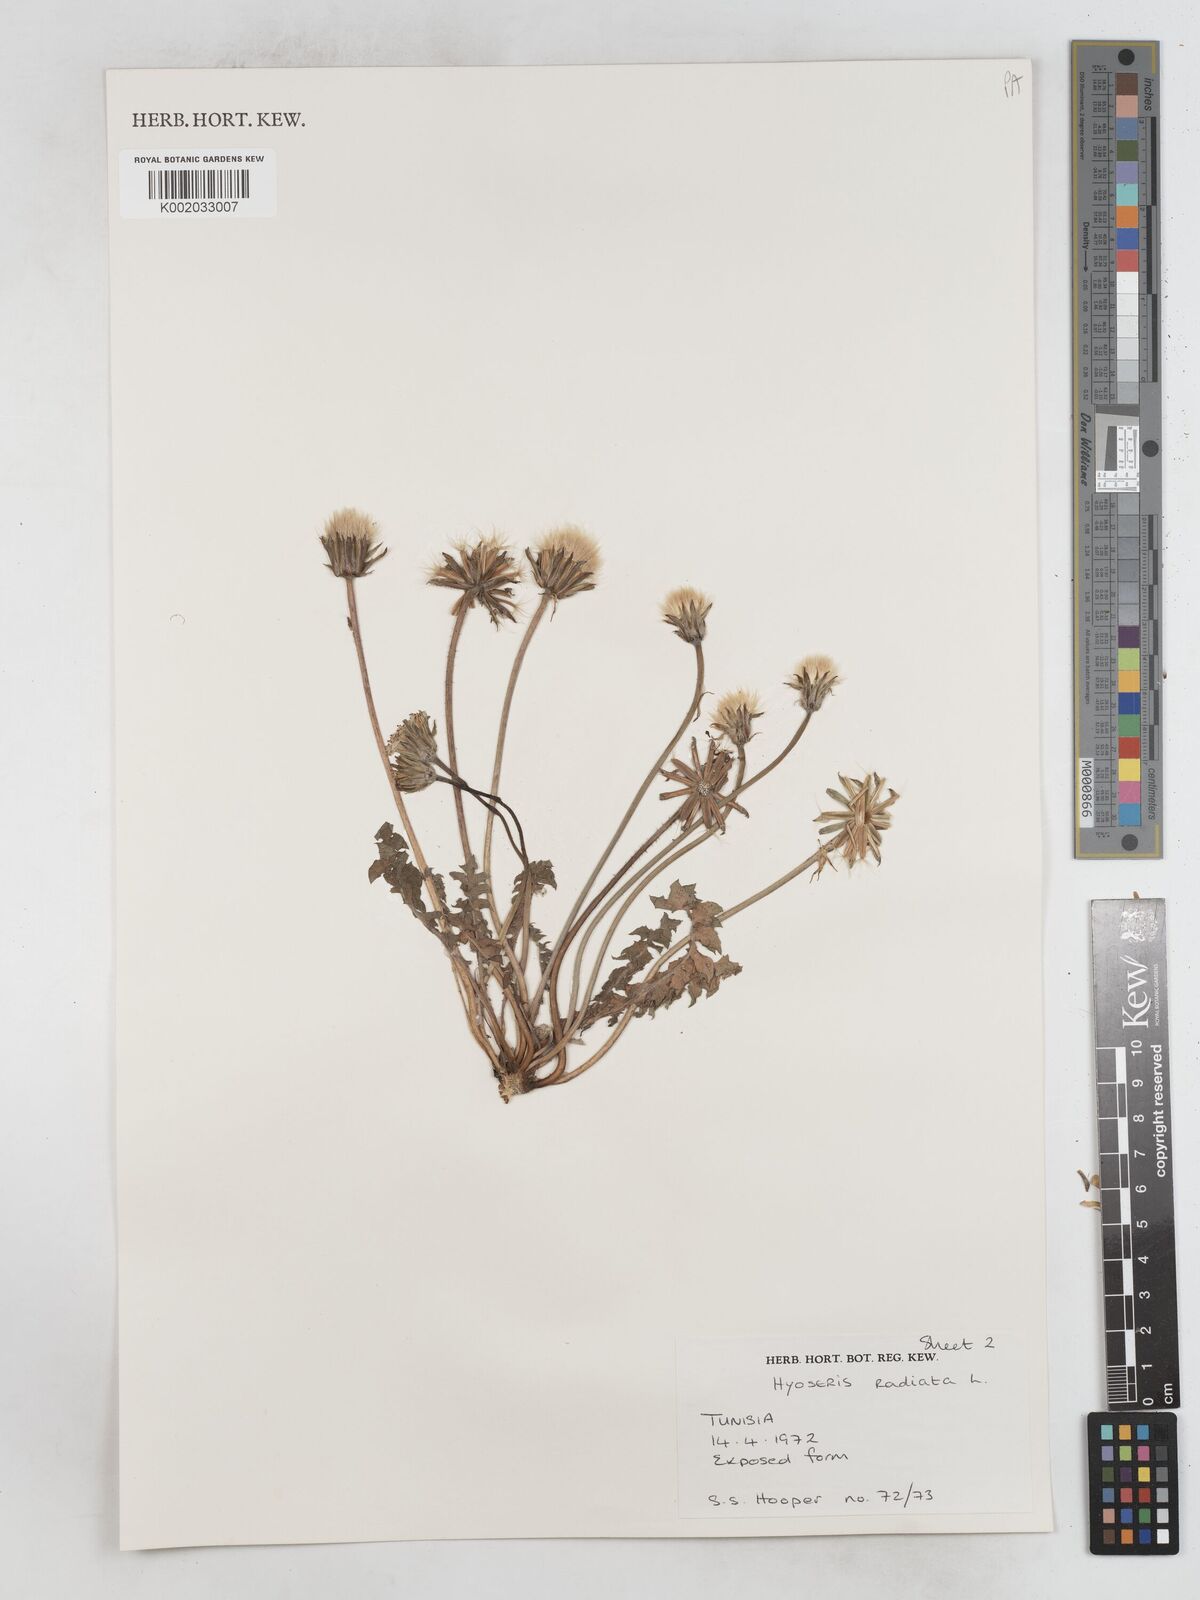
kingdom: Plantae
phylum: Tracheophyta
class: Magnoliopsida
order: Asterales
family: Asteraceae
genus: Hyoseris
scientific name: Hyoseris radiata
